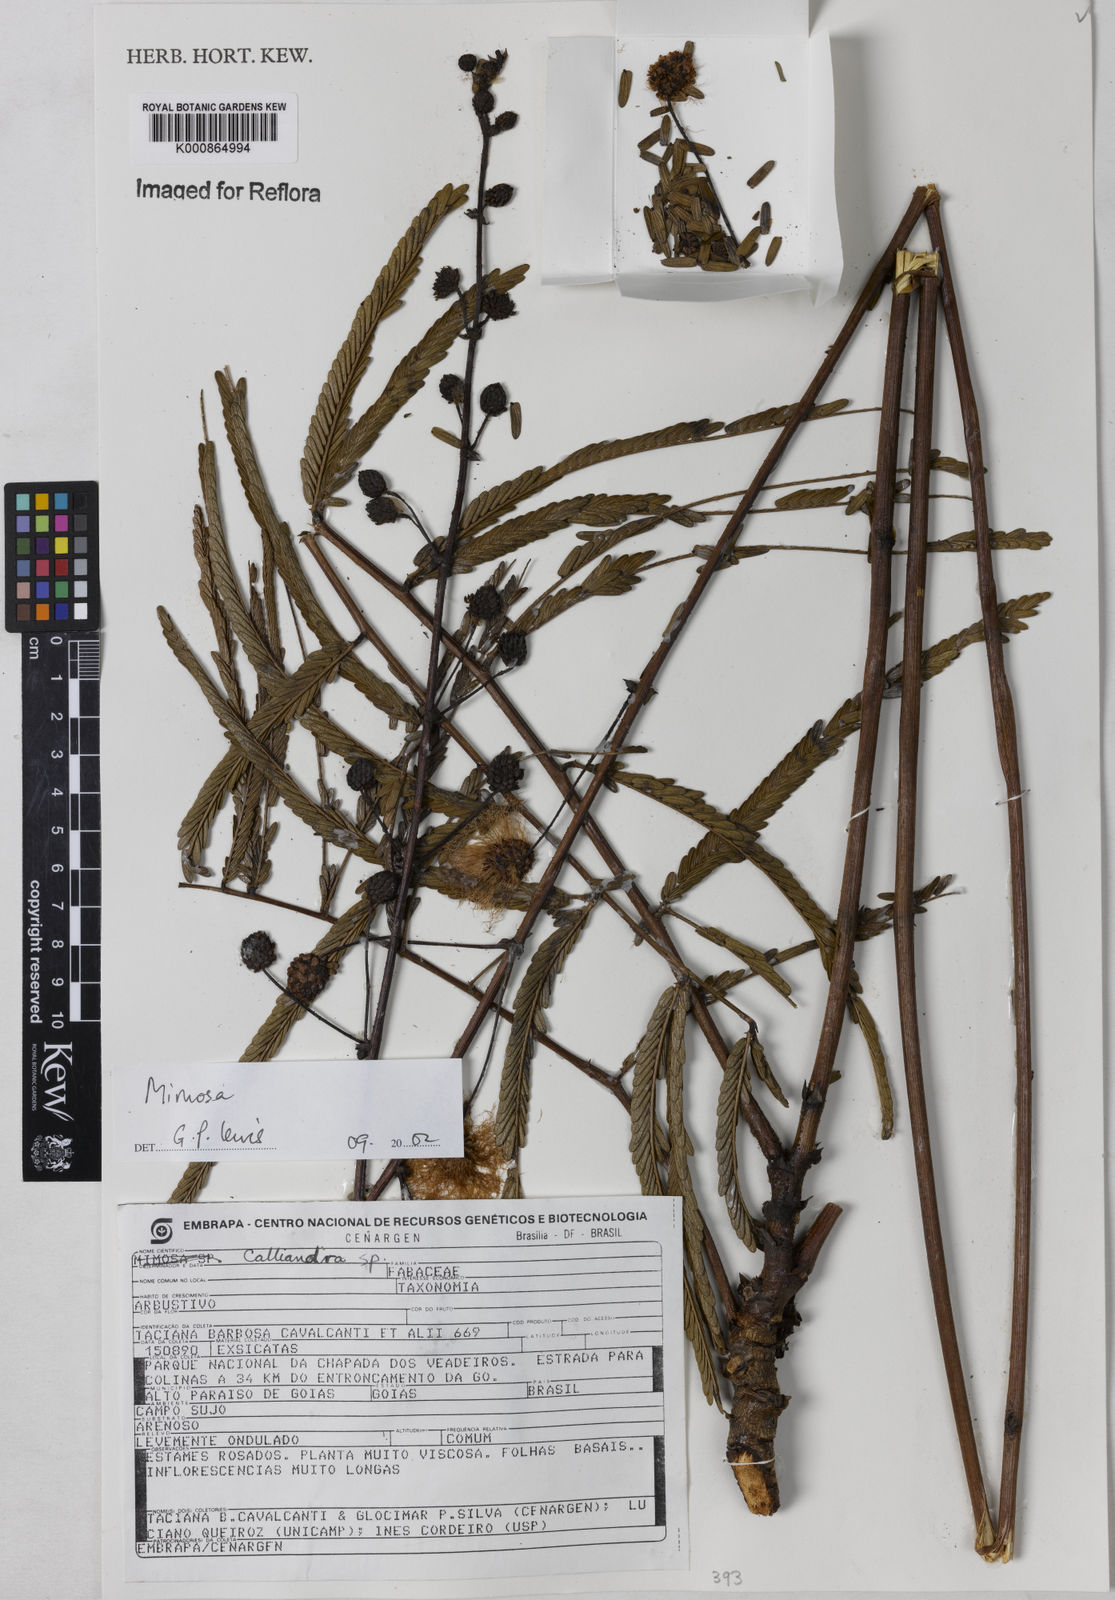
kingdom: Plantae
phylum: Tracheophyta
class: Magnoliopsida
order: Fabales
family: Fabaceae
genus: Mimosa
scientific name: Mimosa ulei
